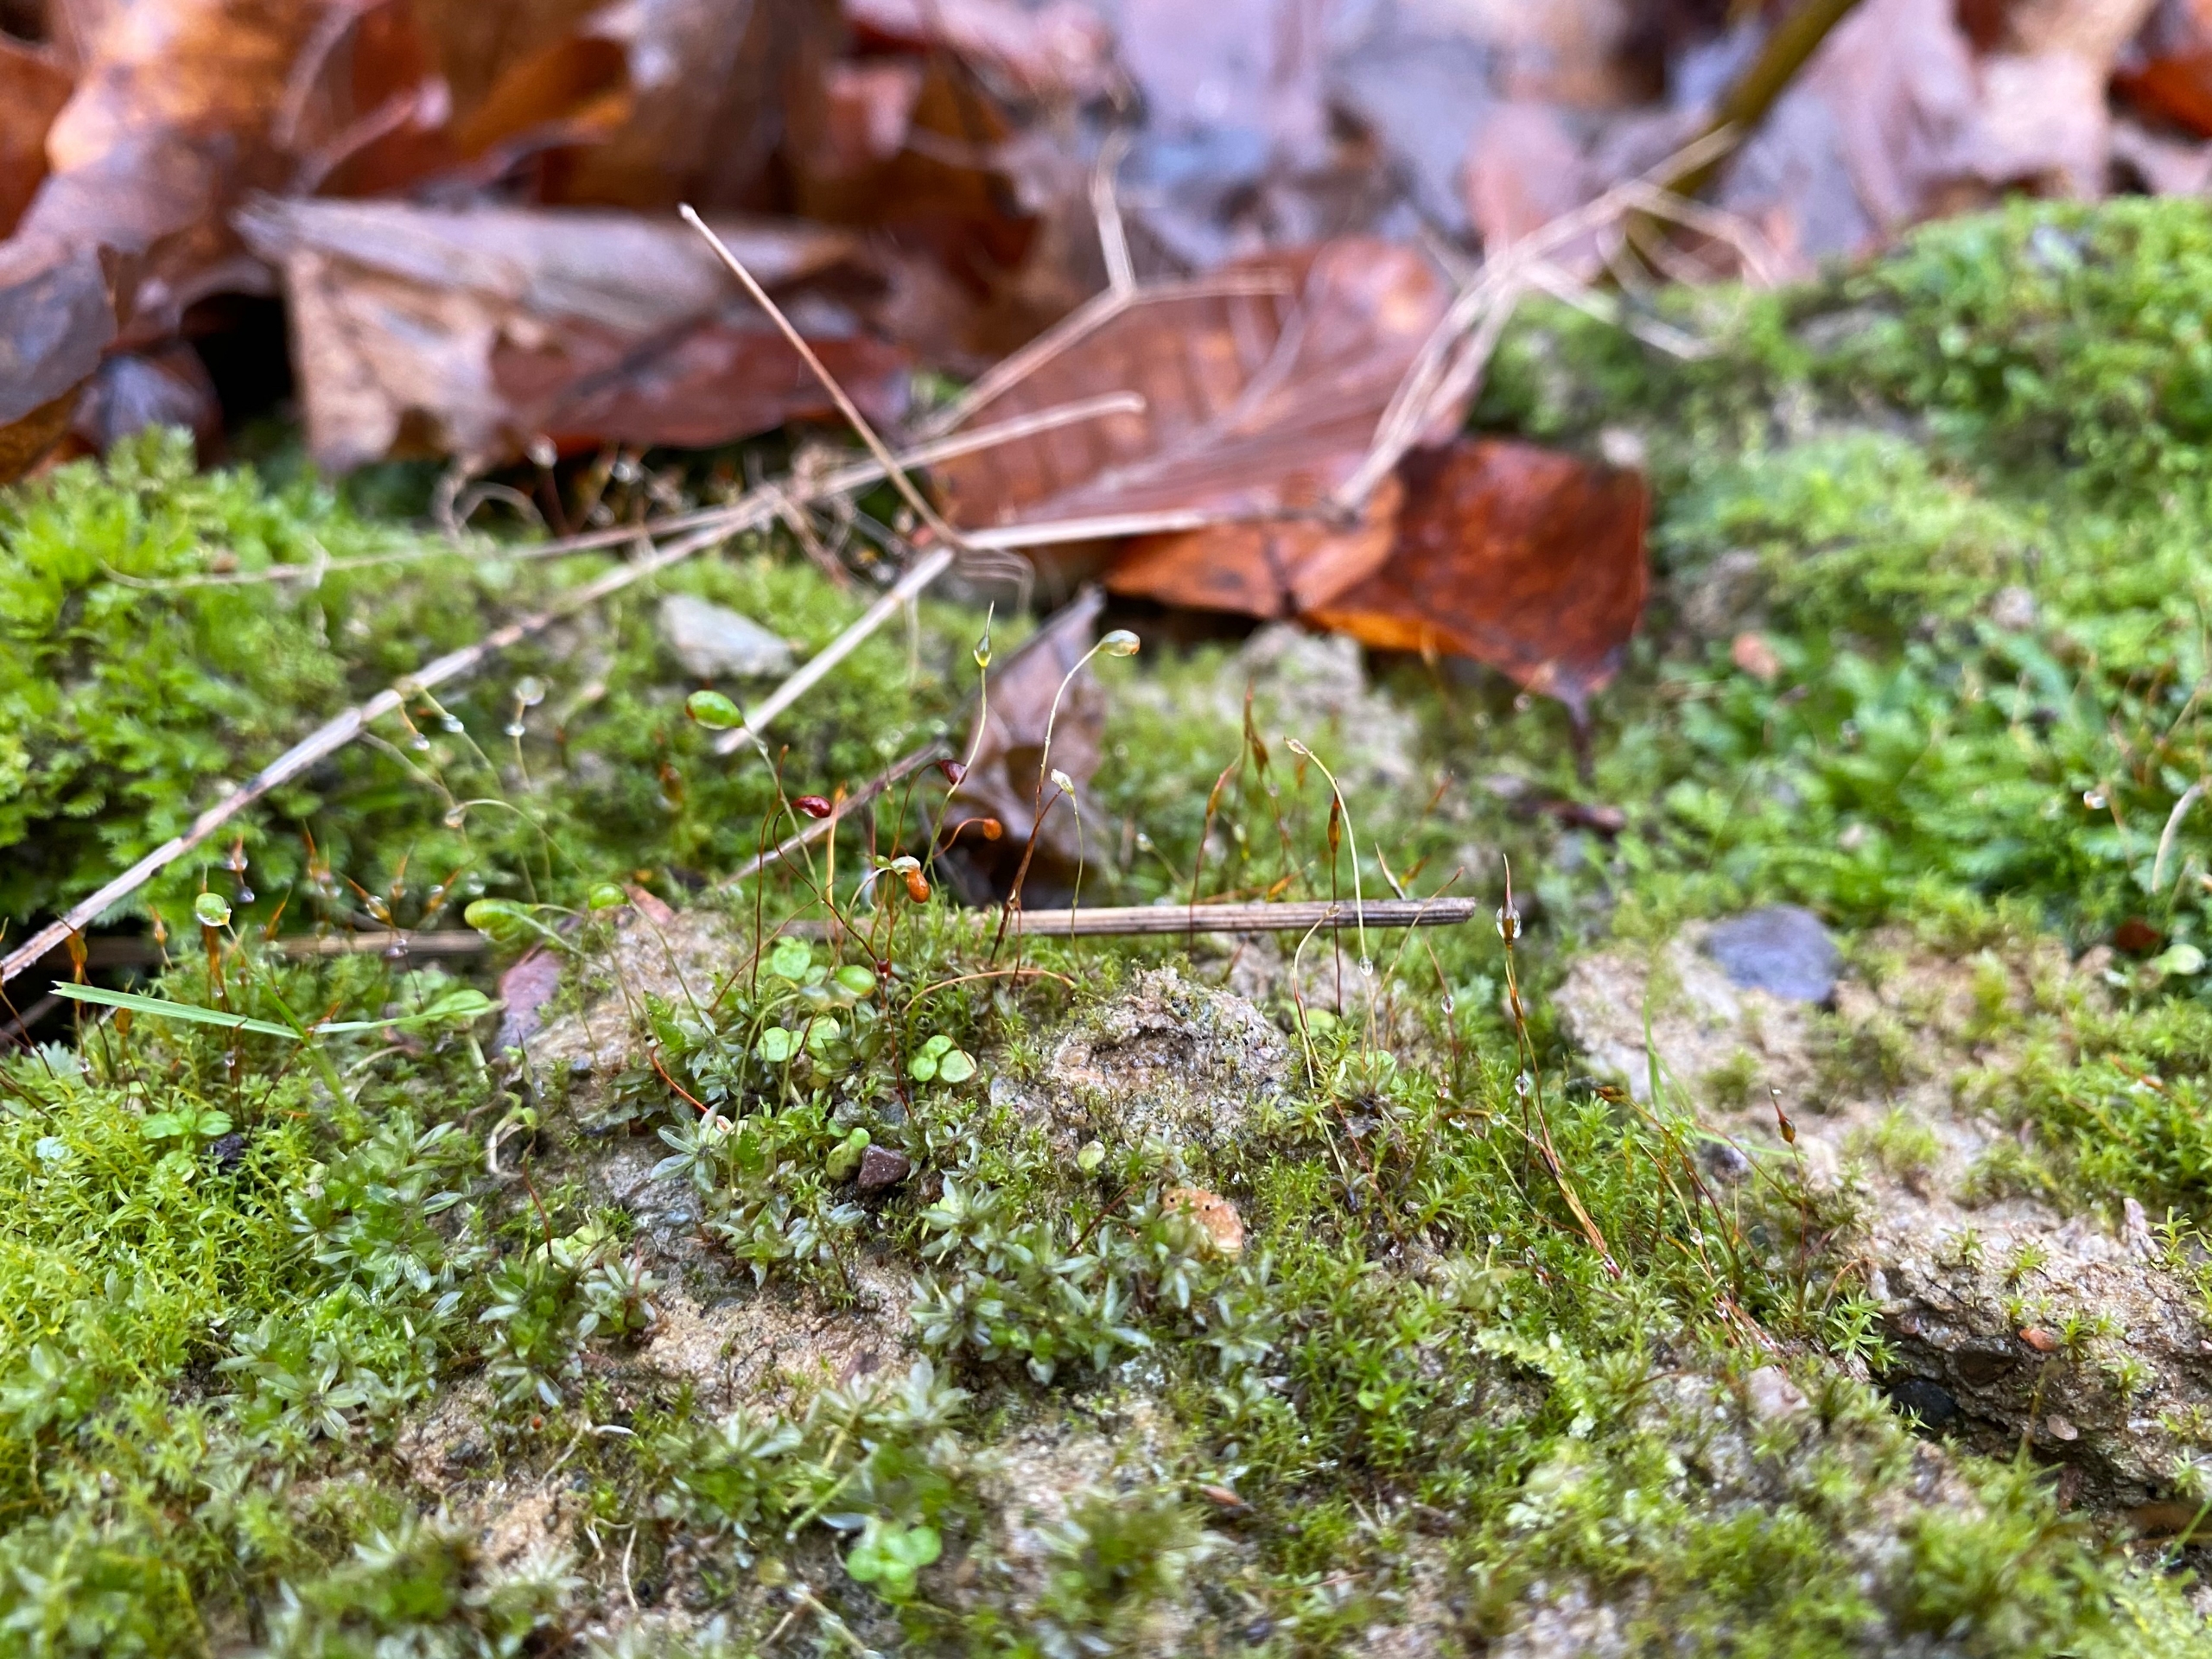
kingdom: Plantae
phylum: Bryophyta
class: Bryopsida
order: Funariales
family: Funariaceae
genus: Funaria
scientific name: Funaria hygrometrica
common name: Almindelig snobørste
